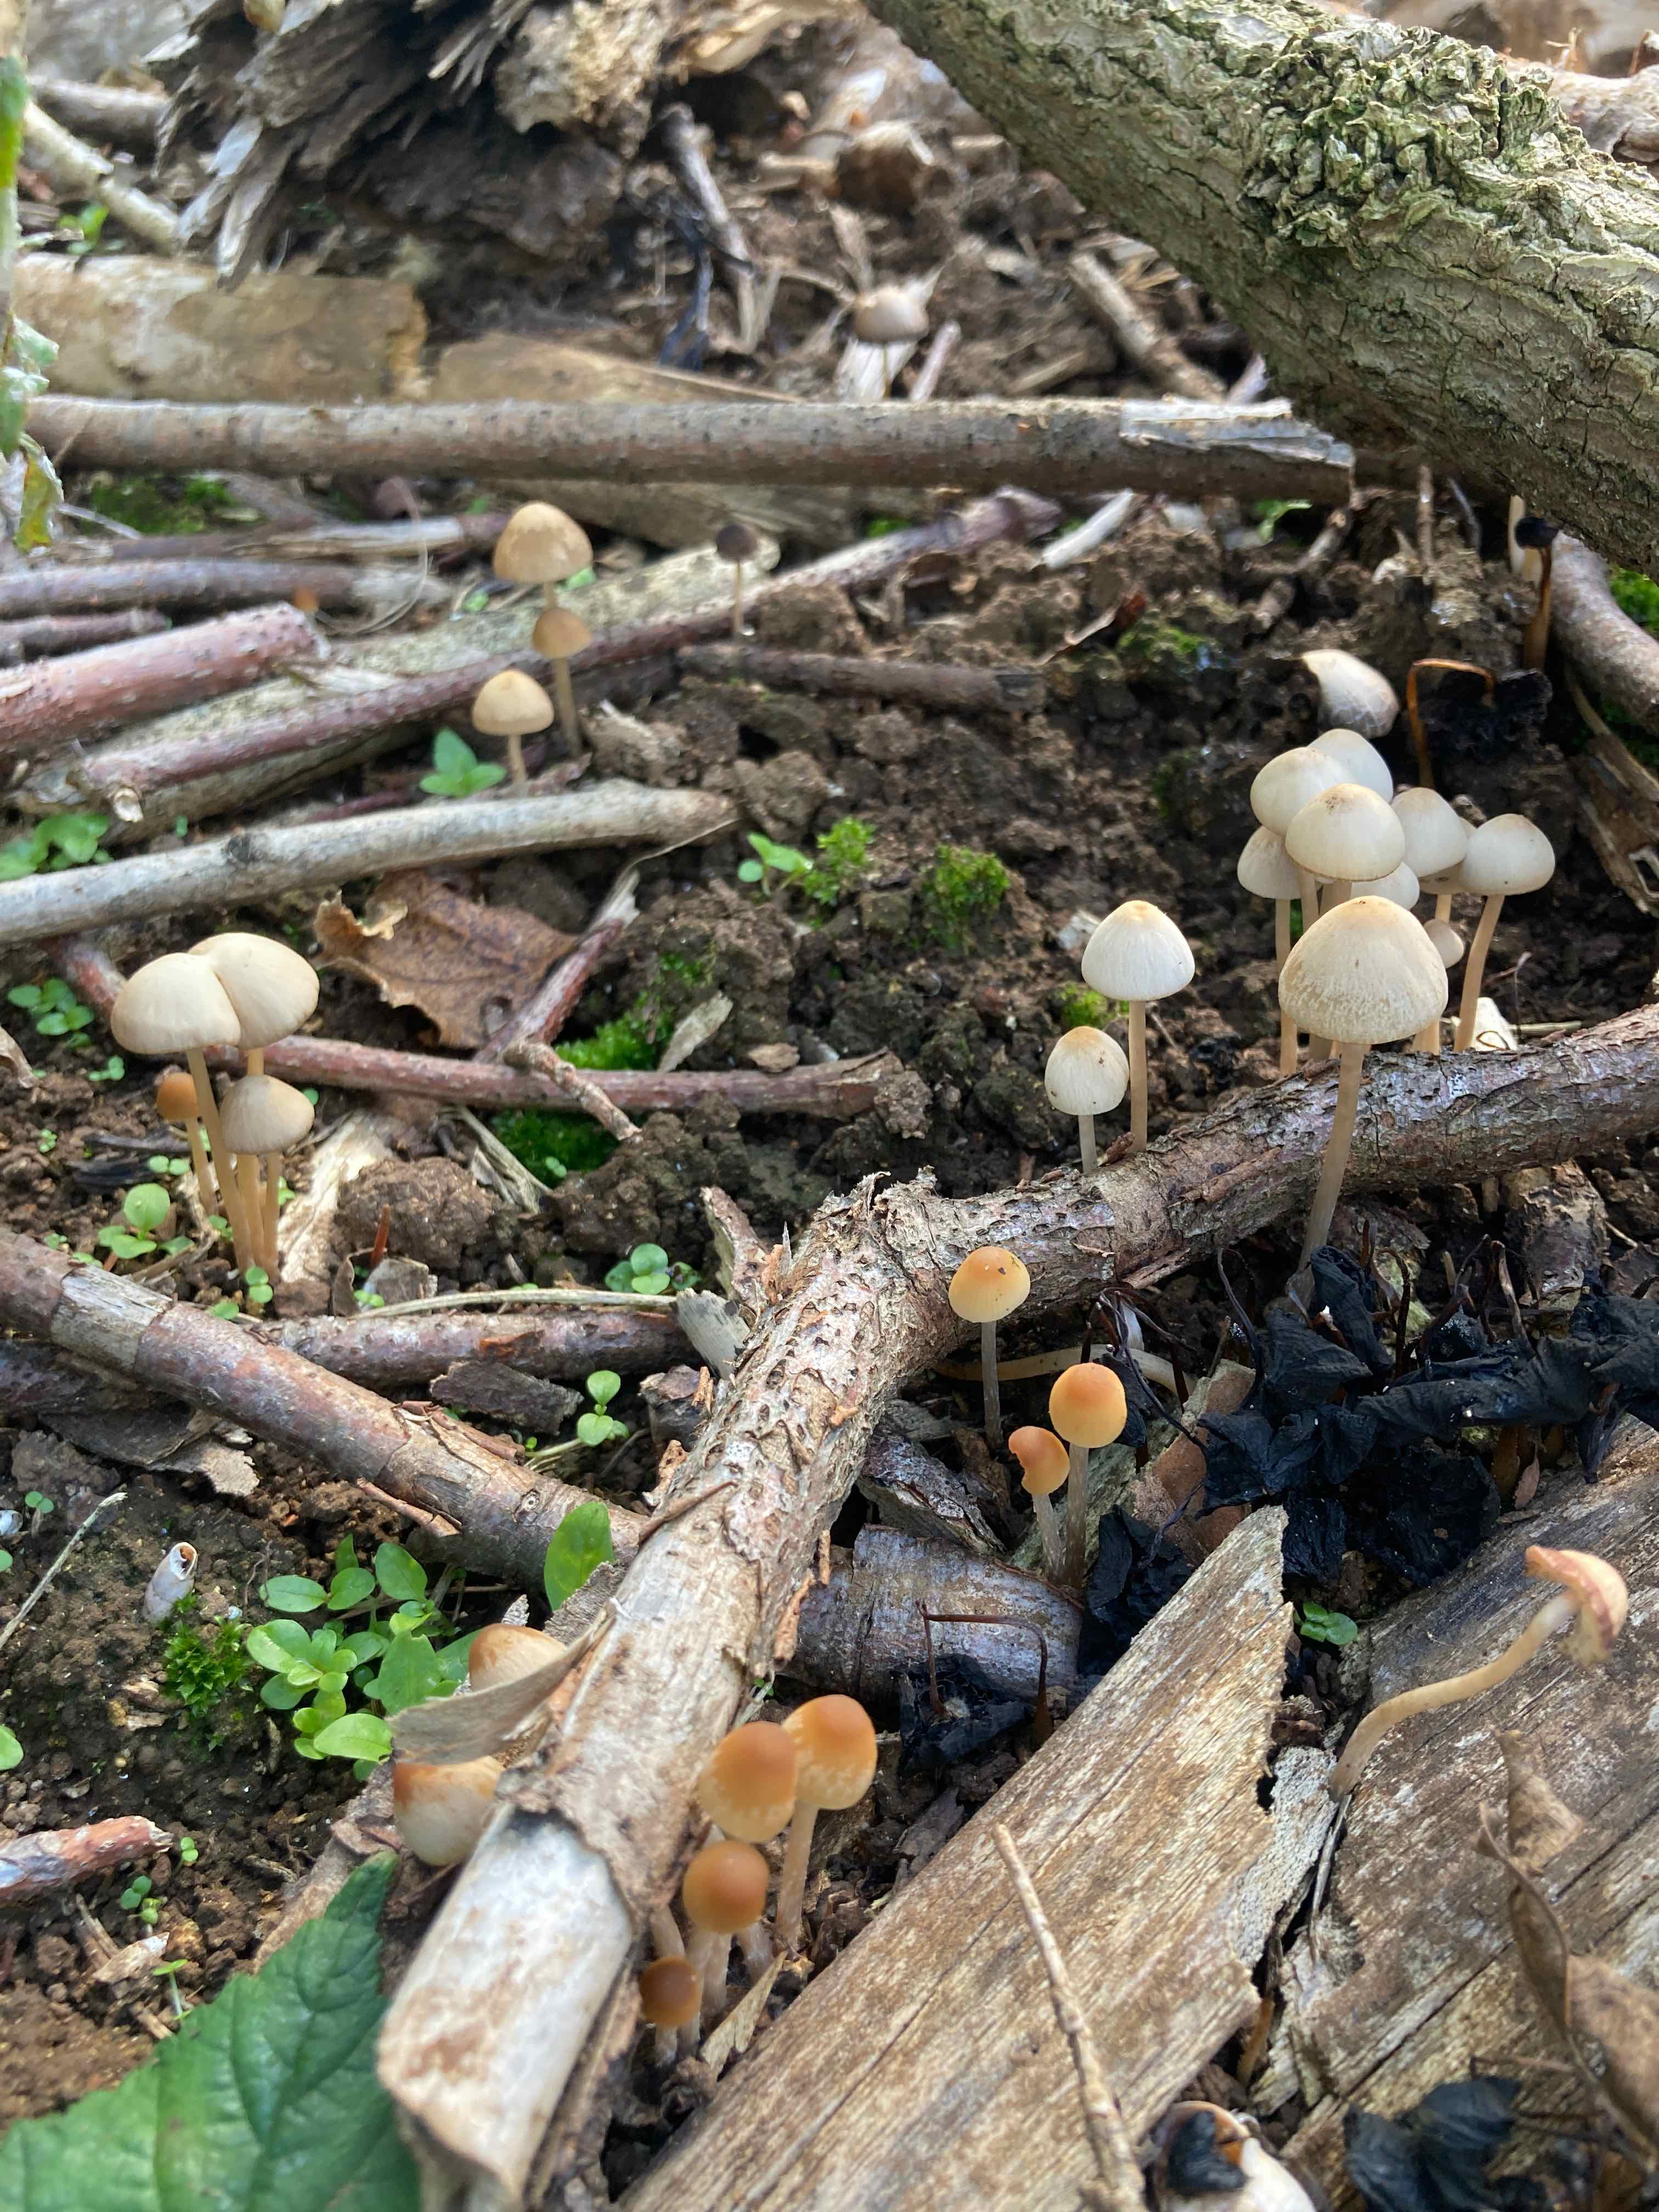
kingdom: Fungi
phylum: Basidiomycota
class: Agaricomycetes
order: Agaricales
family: Psathyrellaceae
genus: Psathyrella
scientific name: Psathyrella
